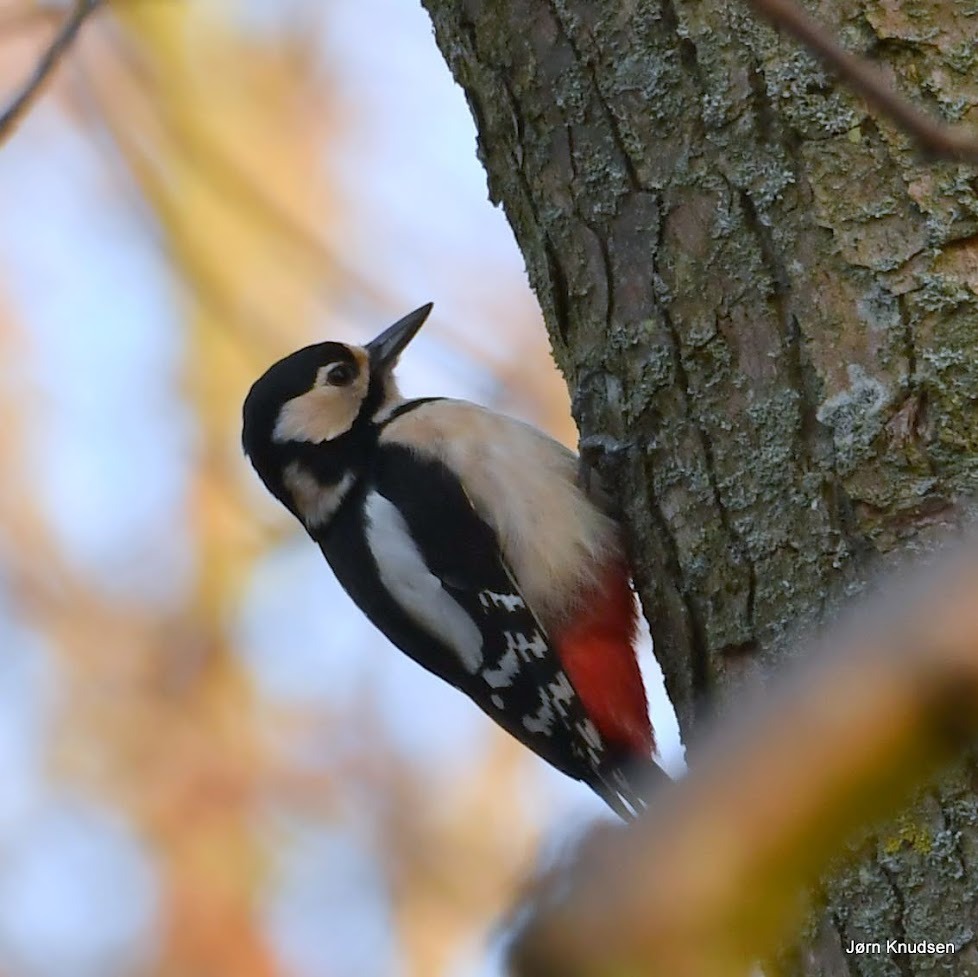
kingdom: Animalia
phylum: Chordata
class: Aves
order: Piciformes
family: Picidae
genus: Dendrocopos
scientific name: Dendrocopos major
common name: Stor flagspætte
